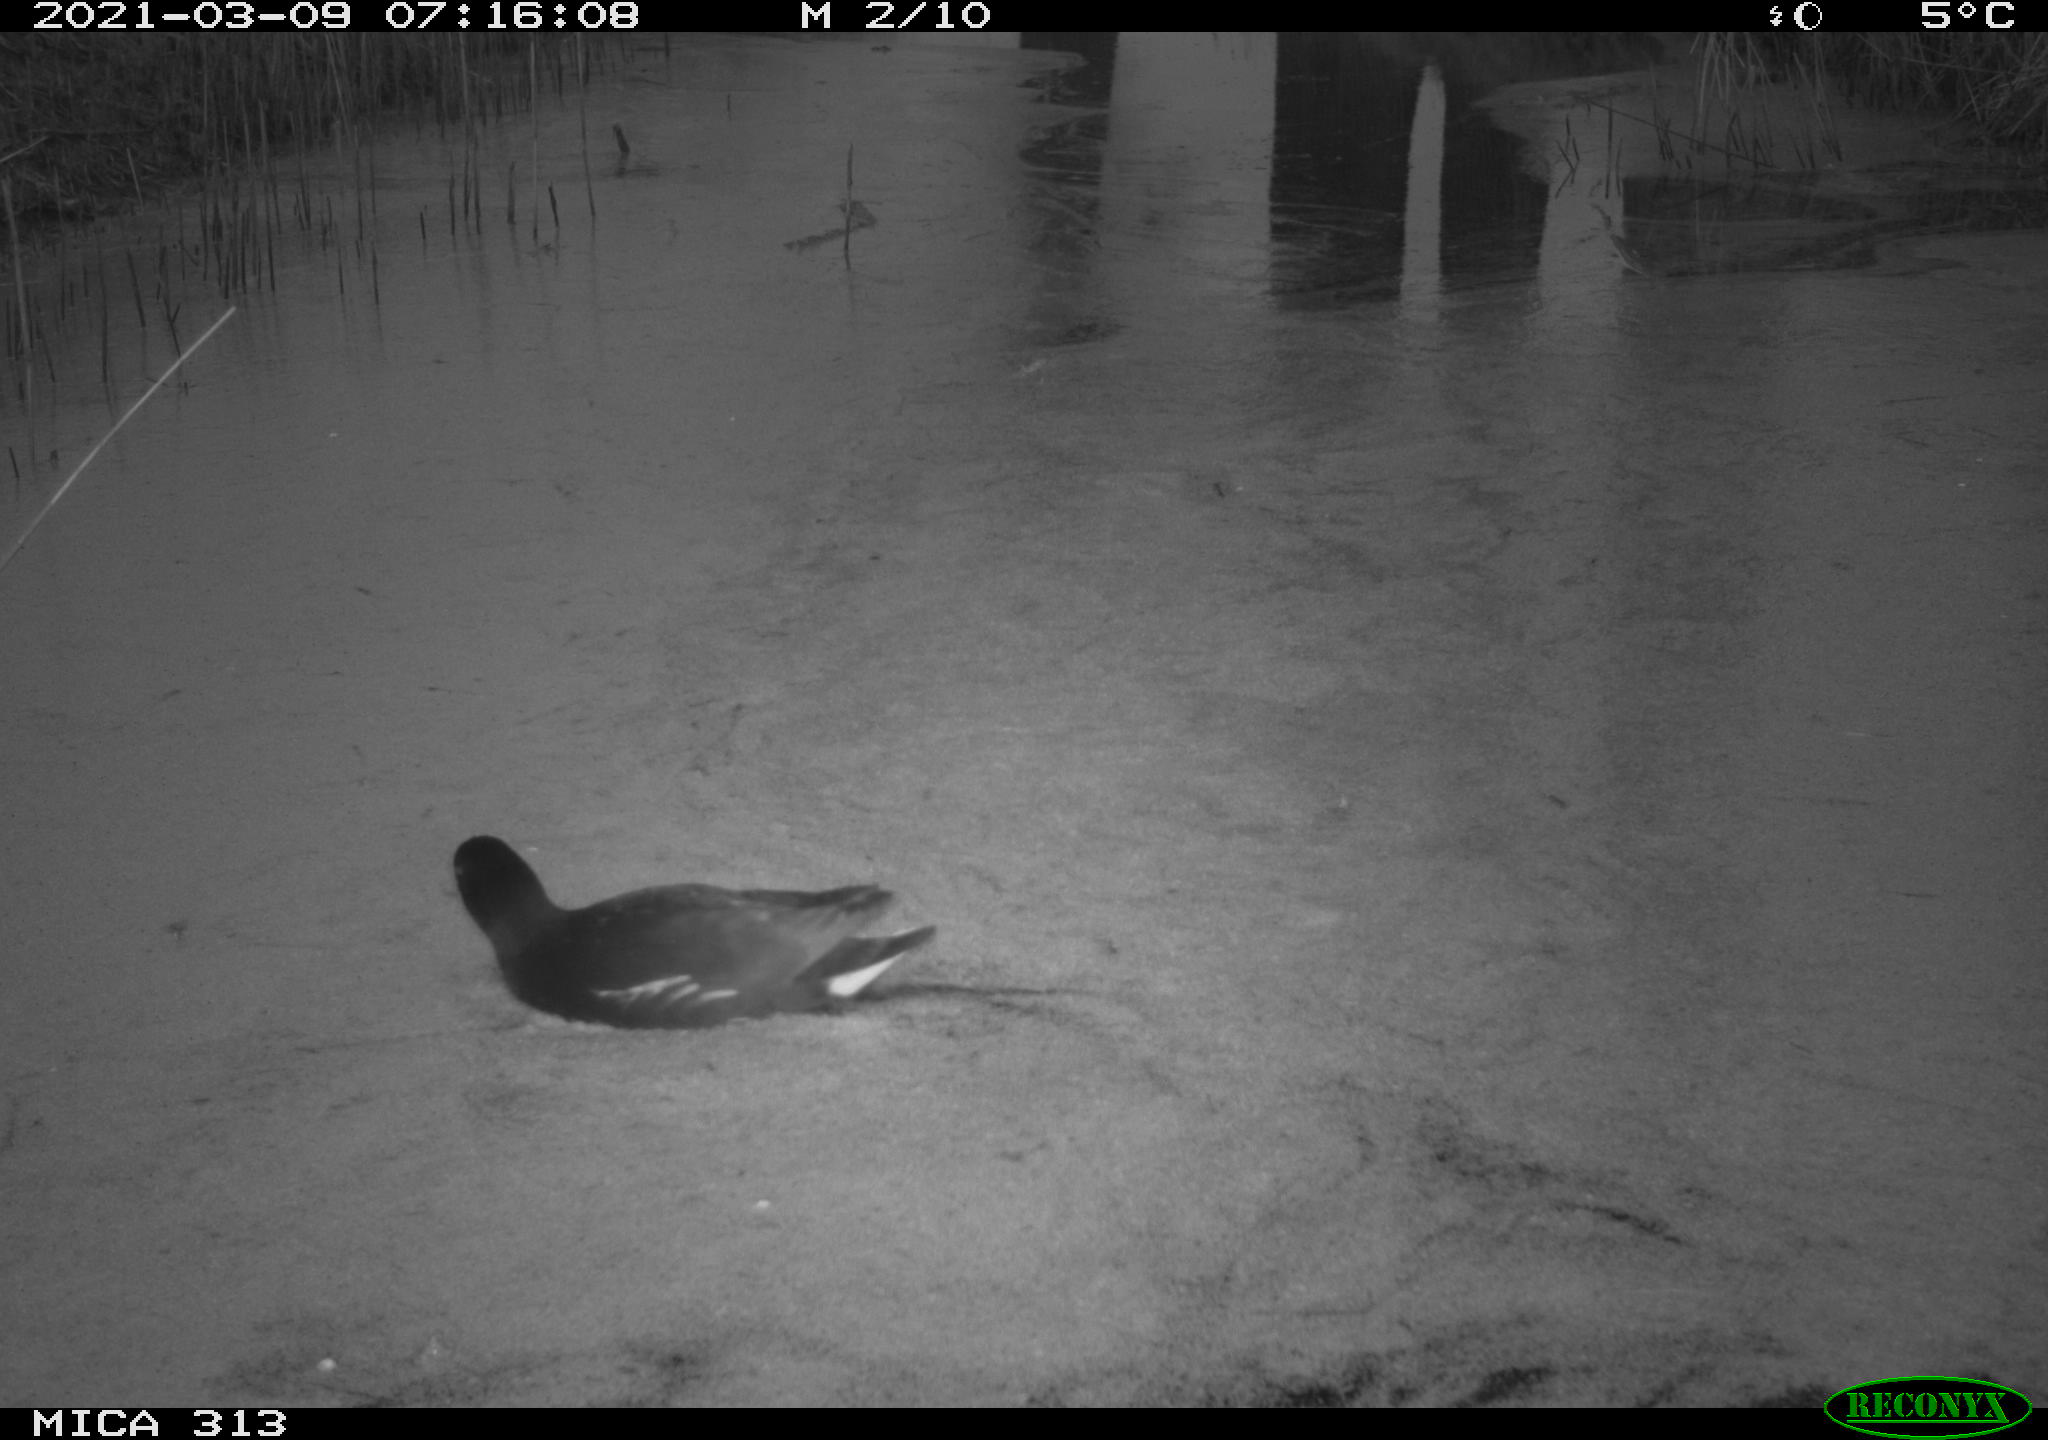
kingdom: Animalia
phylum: Chordata
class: Aves
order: Gruiformes
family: Rallidae
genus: Gallinula
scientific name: Gallinula chloropus
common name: Common moorhen
